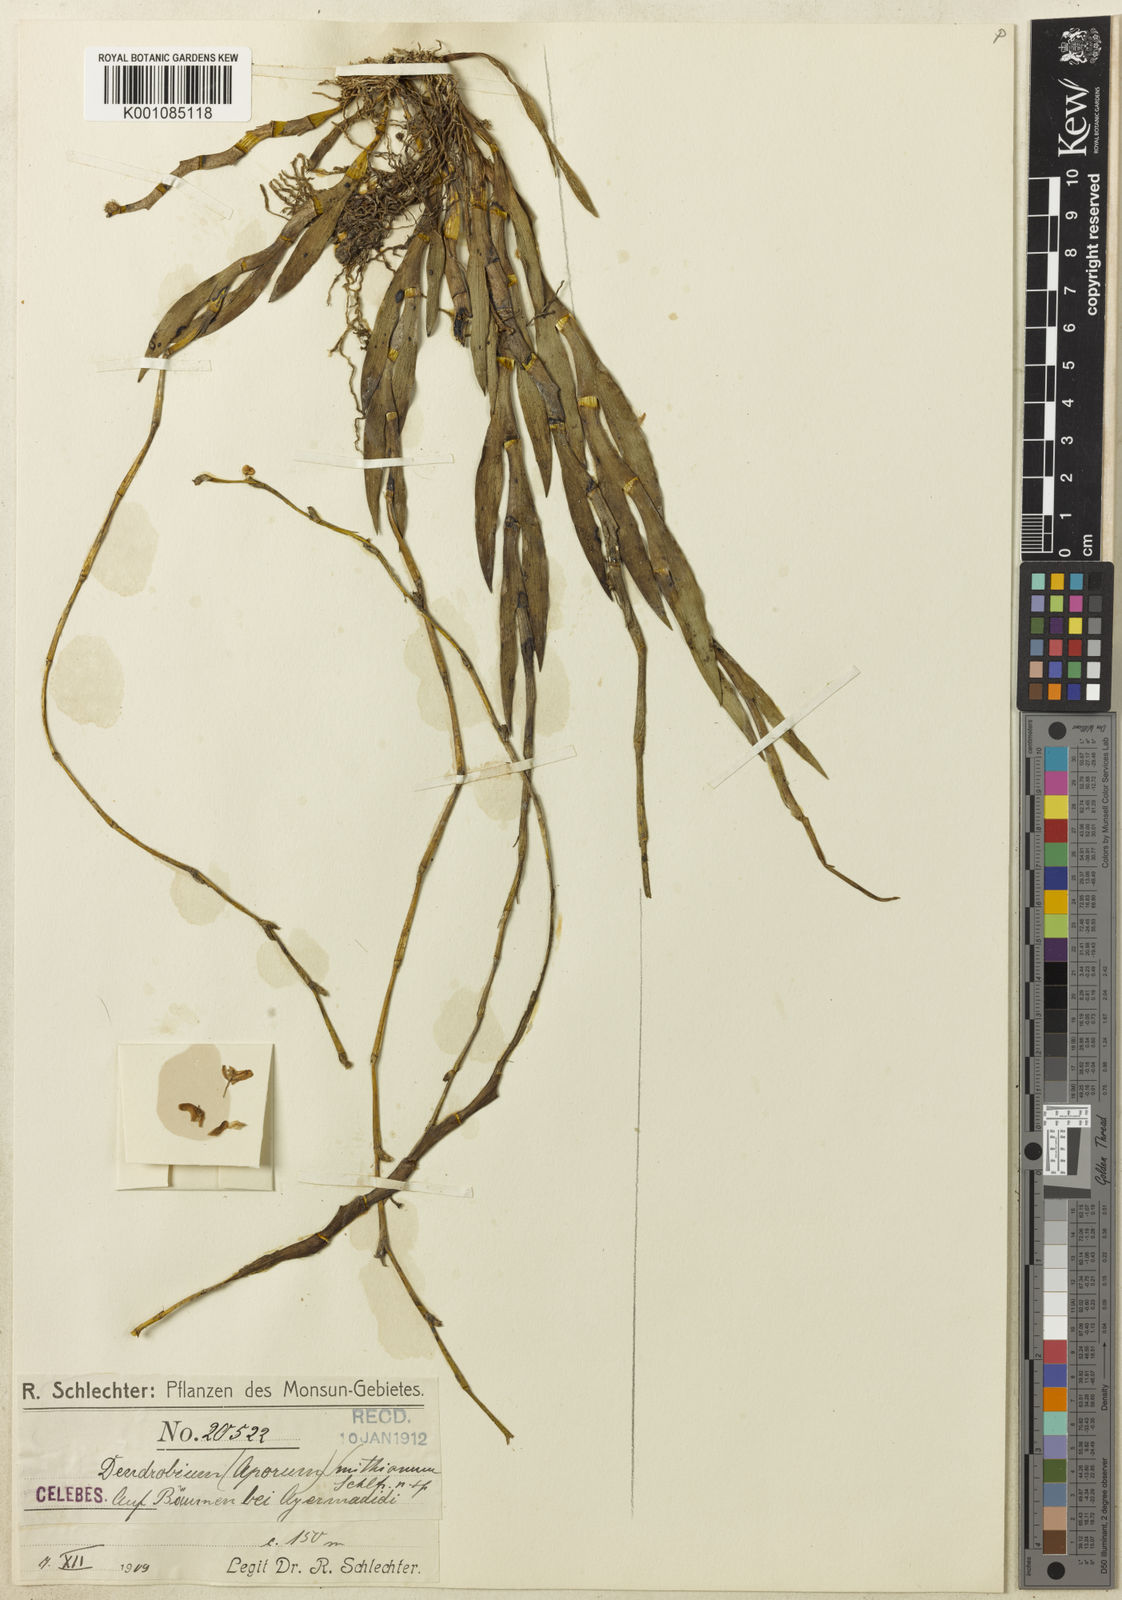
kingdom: Plantae
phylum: Tracheophyta
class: Liliopsida
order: Asparagales
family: Orchidaceae
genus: Dendrobium
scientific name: Dendrobium smithianum
